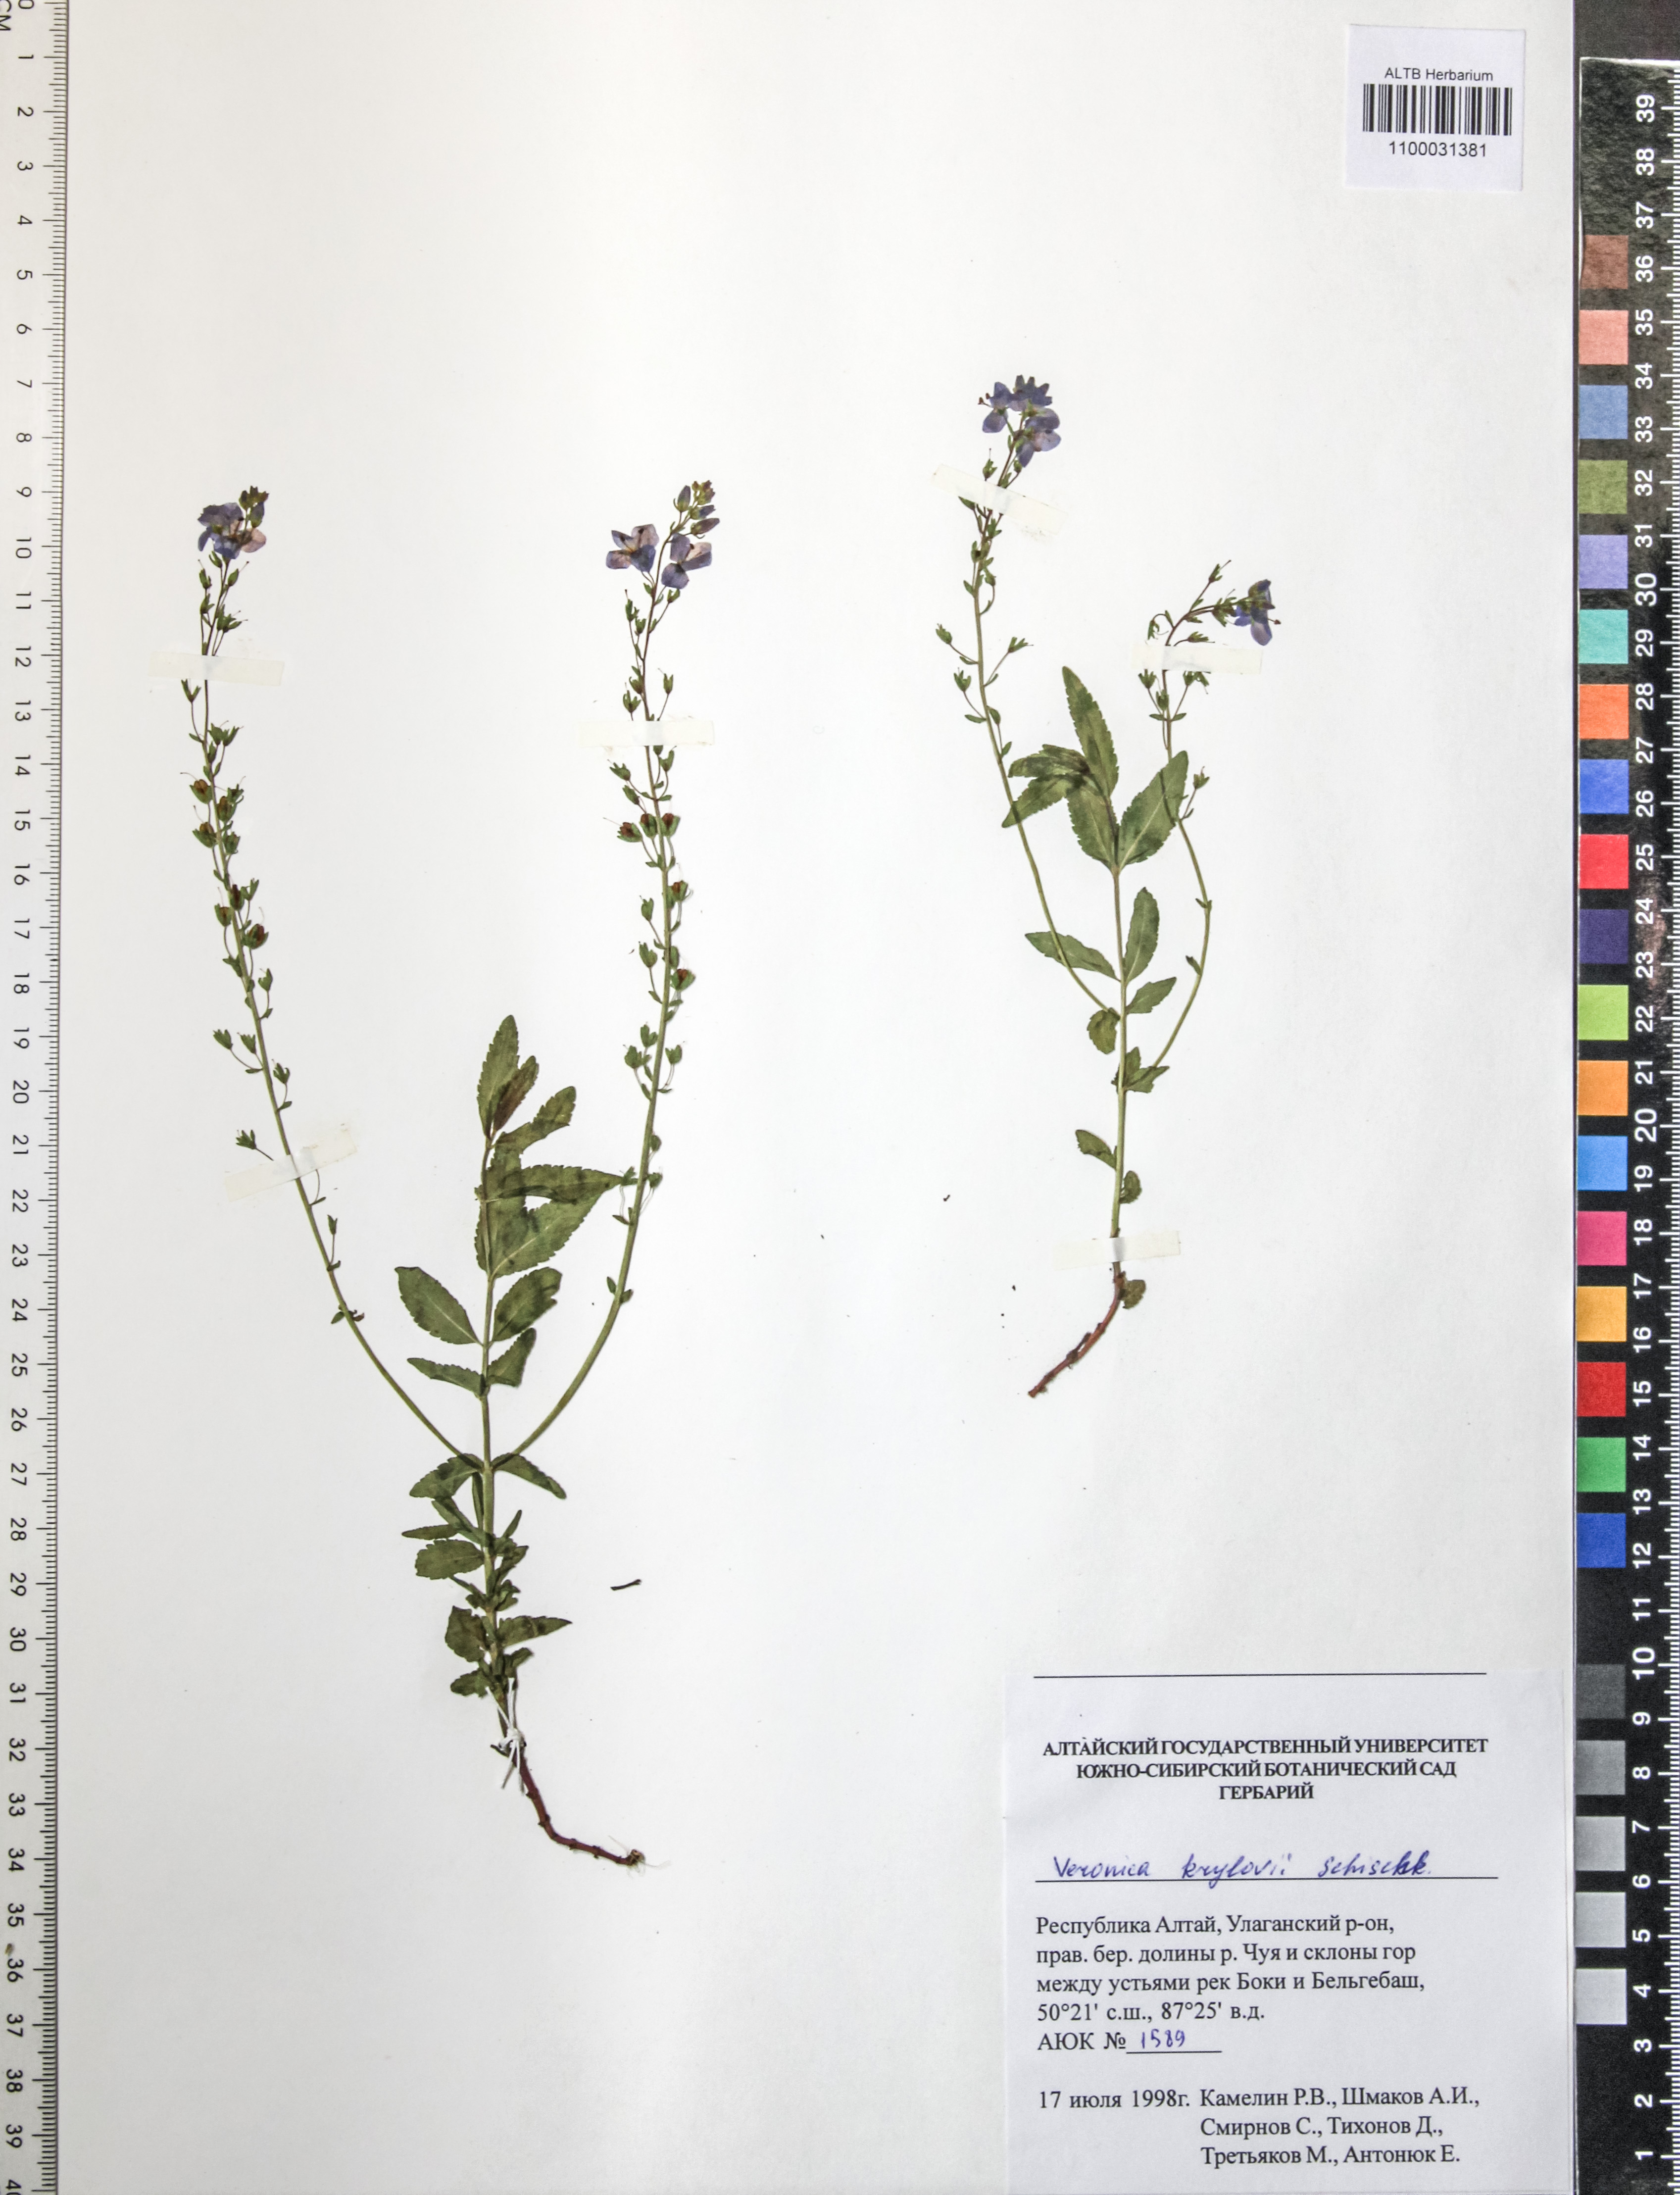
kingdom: Plantae
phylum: Tracheophyta
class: Magnoliopsida
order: Lamiales
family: Plantaginaceae
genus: Veronica
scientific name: Veronica krylovii
